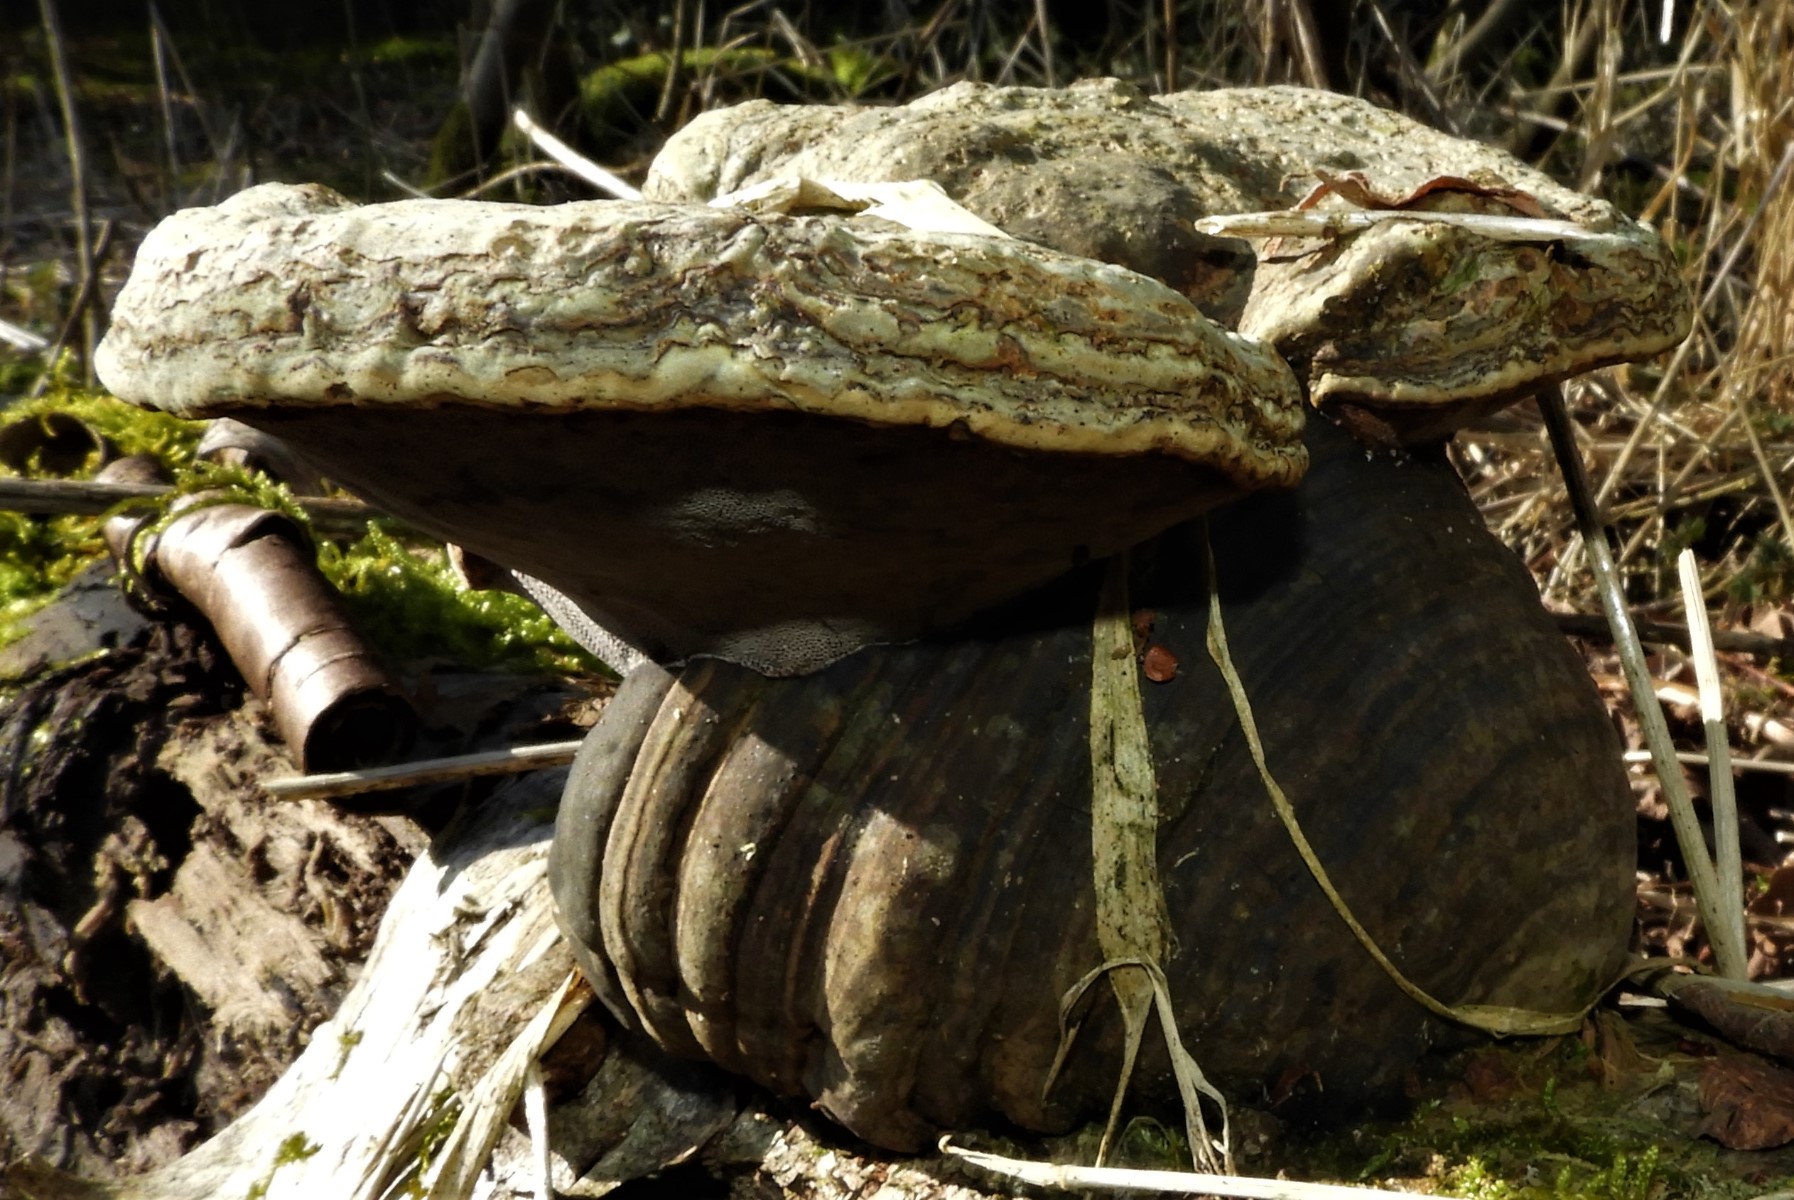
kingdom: Fungi
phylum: Basidiomycota
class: Agaricomycetes
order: Polyporales
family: Polyporaceae
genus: Fomes
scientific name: Fomes fomentarius
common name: tøndersvamp
